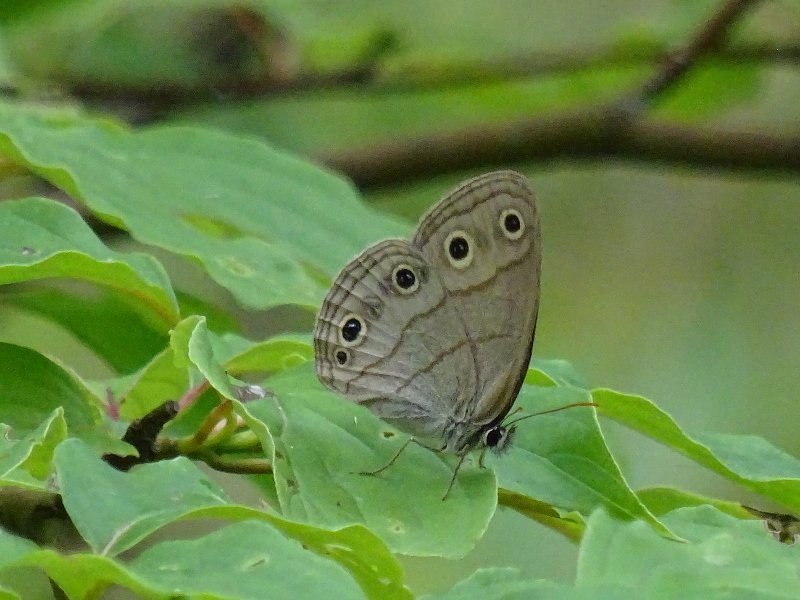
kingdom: Animalia
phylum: Arthropoda
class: Insecta
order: Lepidoptera
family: Nymphalidae
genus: Euptychia
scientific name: Euptychia cymela
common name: Little Wood Satyr
